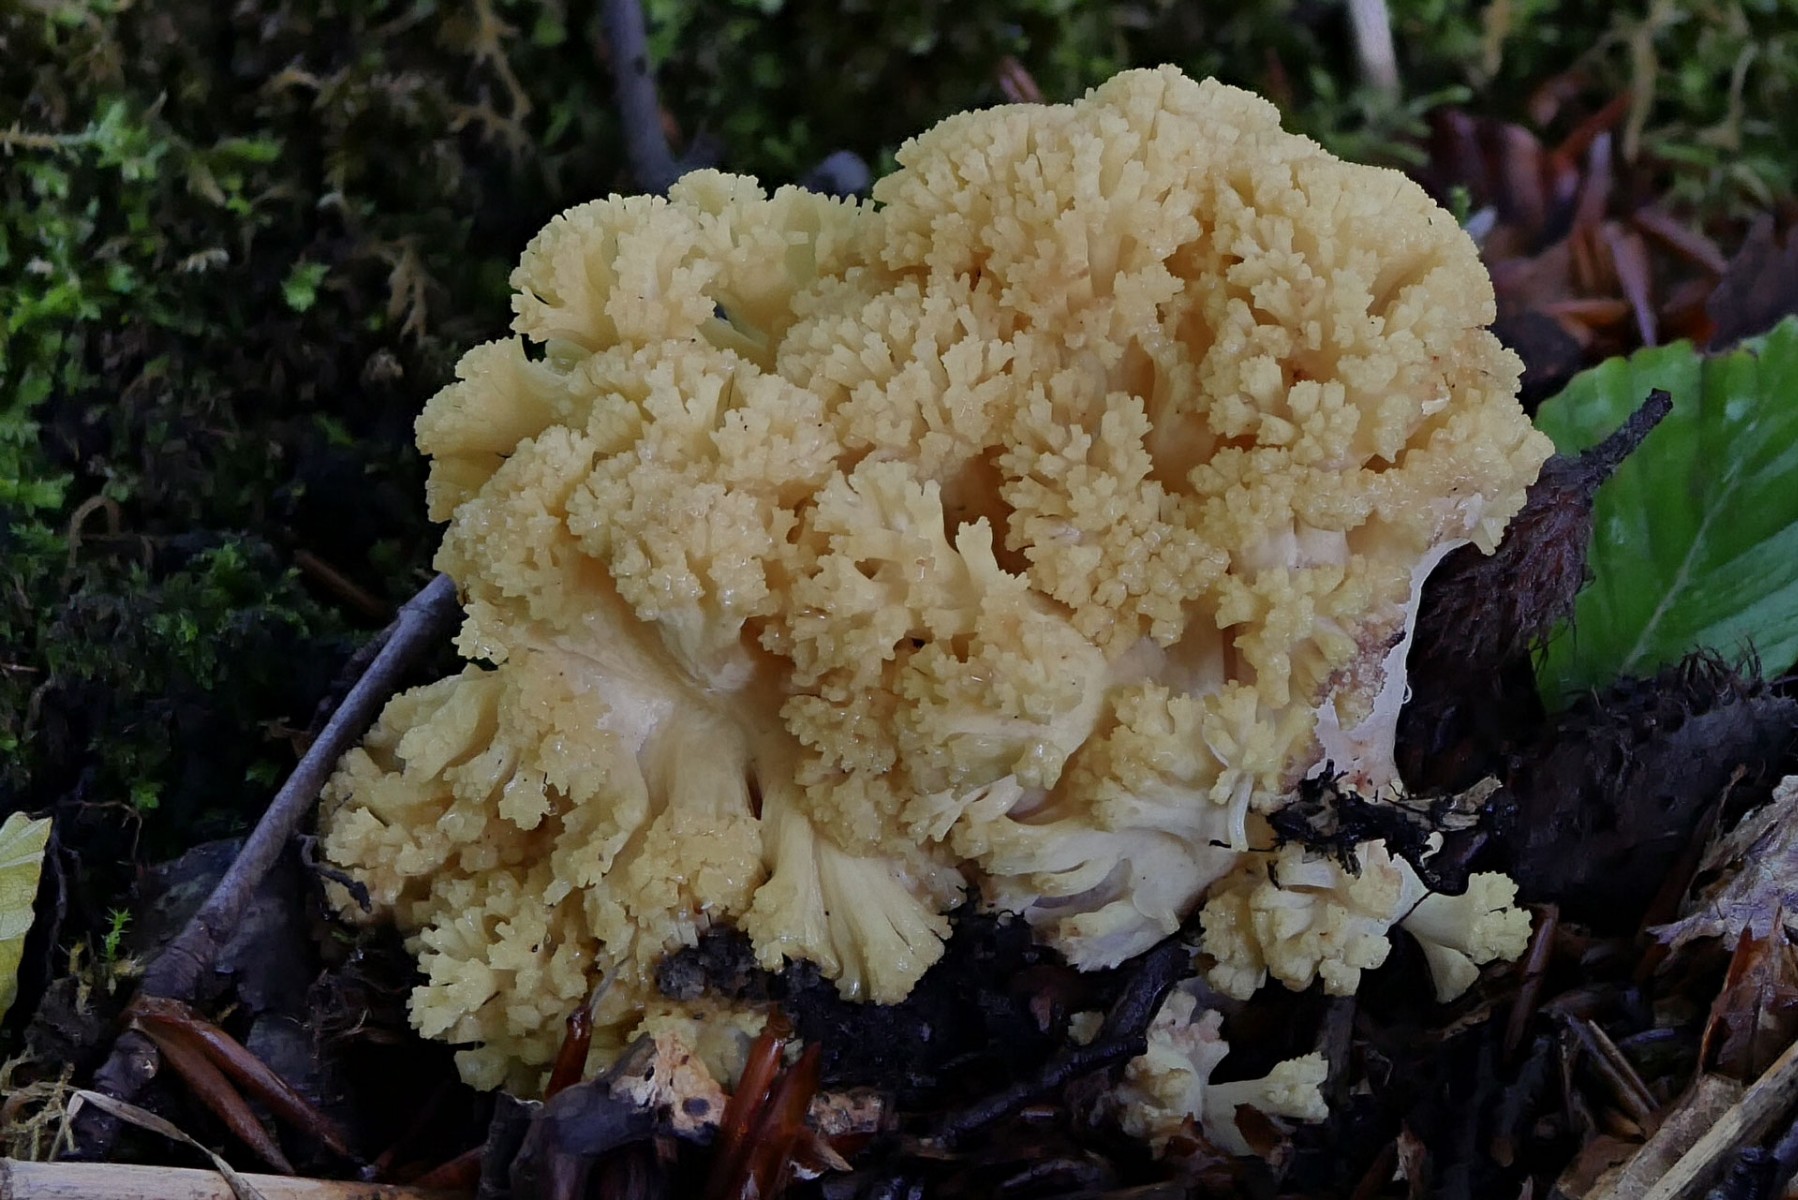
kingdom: Fungi
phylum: Basidiomycota
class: Agaricomycetes
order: Gomphales
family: Gomphaceae
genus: Ramaria
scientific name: Ramaria sanguinea
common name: blodplettet koralsvamp
